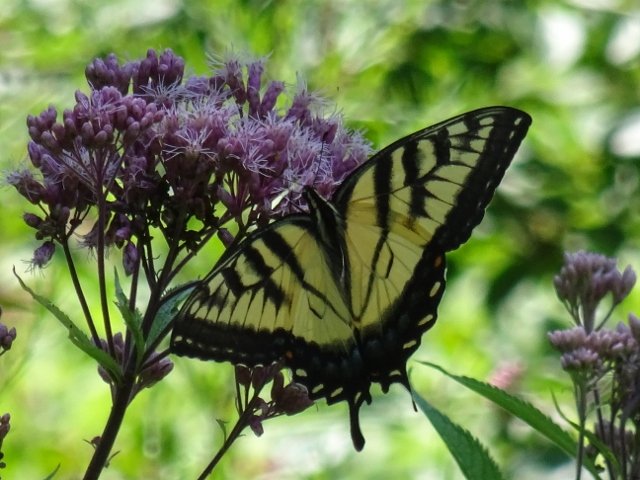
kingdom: Animalia
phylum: Arthropoda
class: Insecta
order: Lepidoptera
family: Papilionidae
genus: Pterourus
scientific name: Pterourus glaucus
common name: Eastern Tiger Swallowtail
